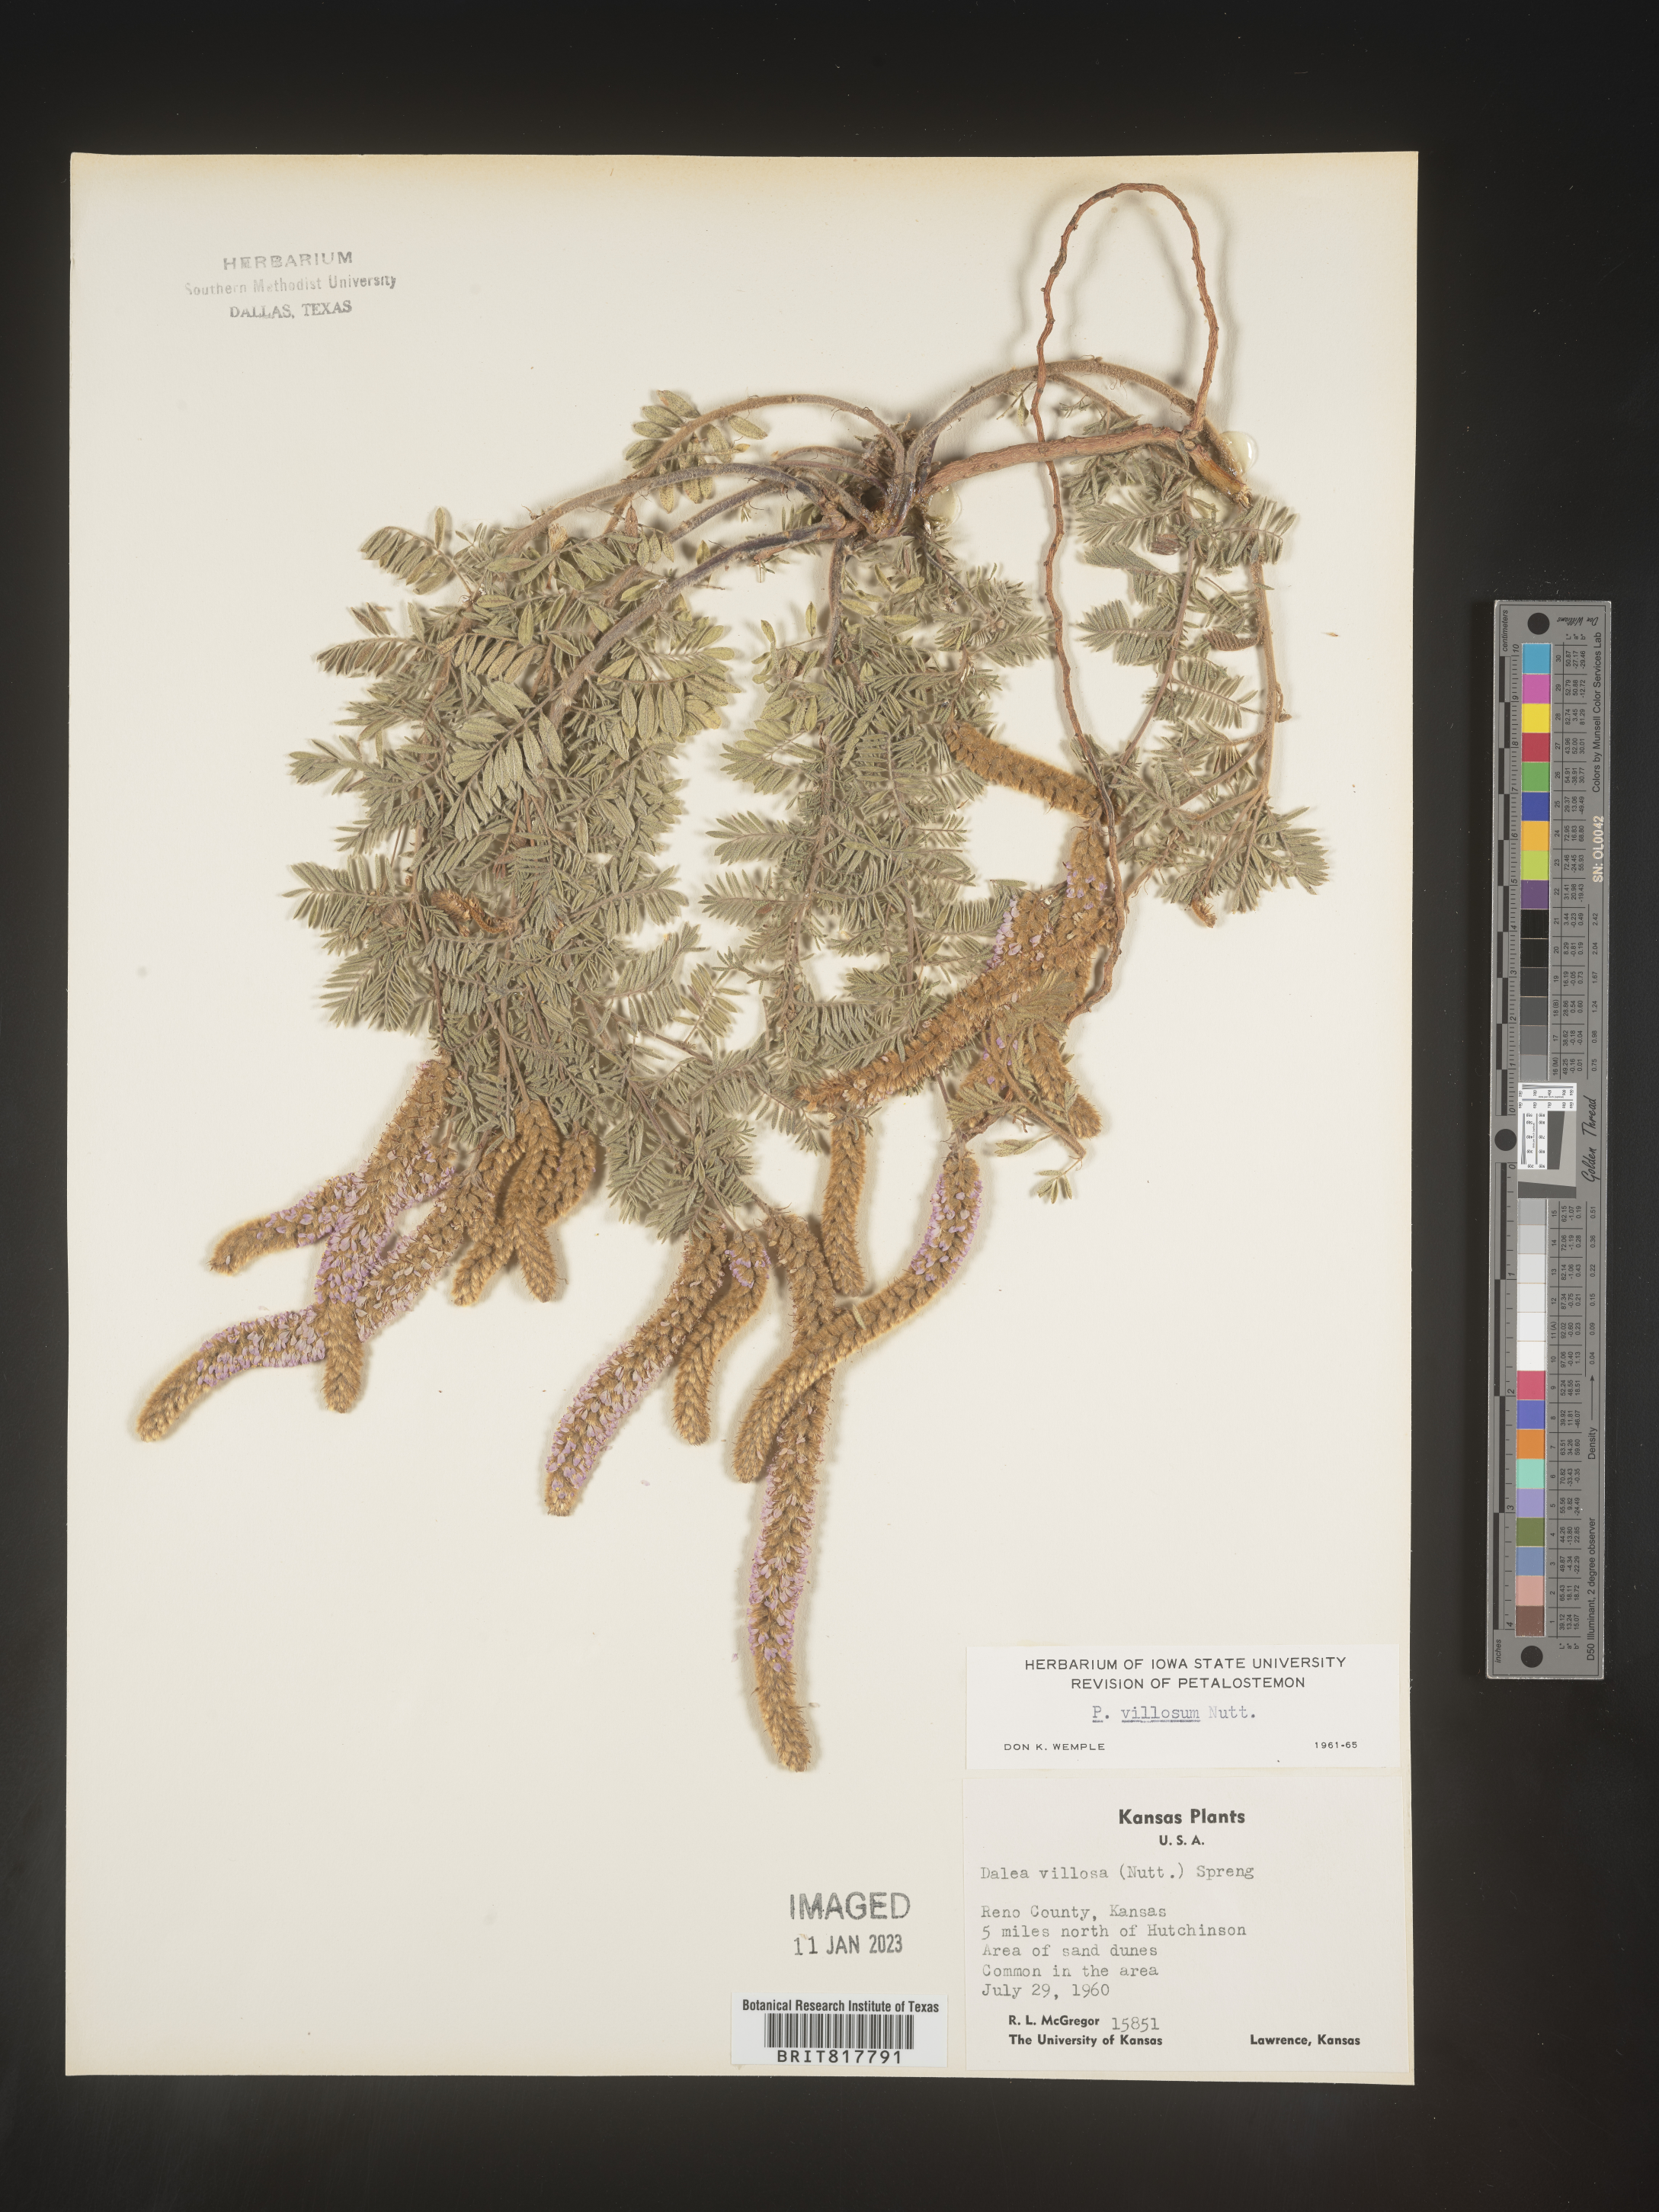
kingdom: Plantae
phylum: Tracheophyta
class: Magnoliopsida
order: Fabales
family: Fabaceae
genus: Dalea
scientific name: Dalea villosa
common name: Silky prairie-clover
